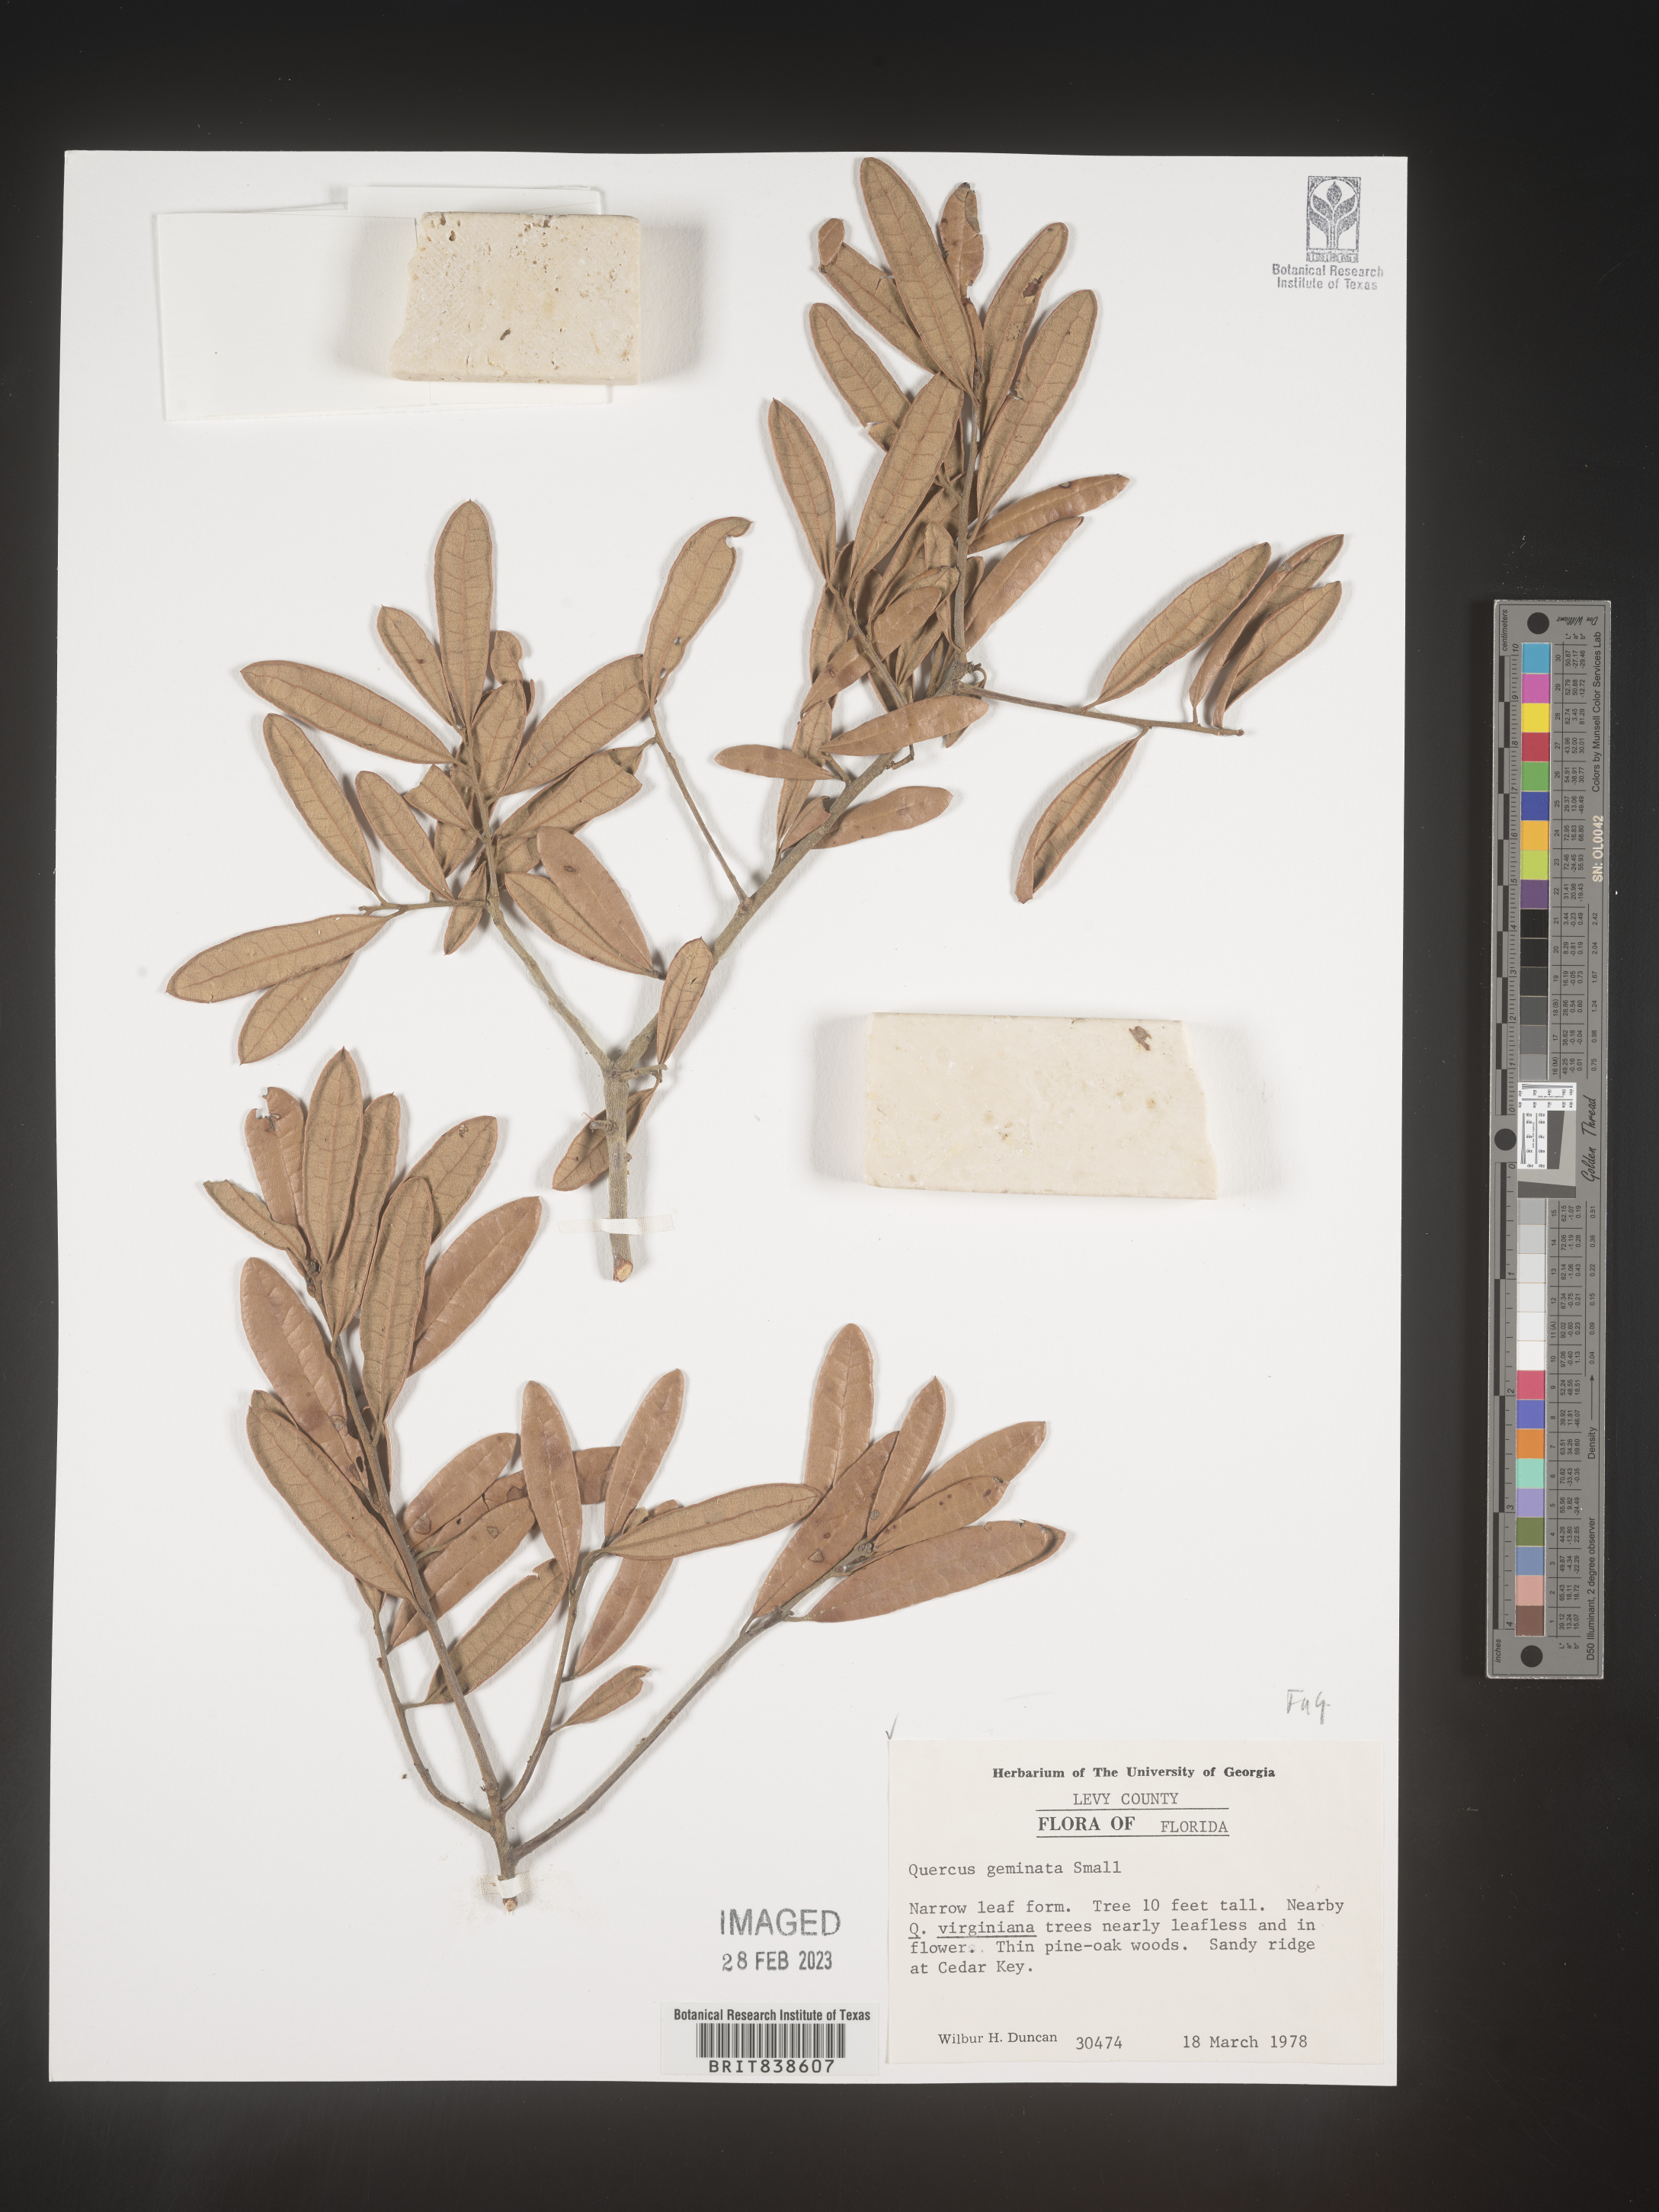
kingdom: Plantae
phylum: Tracheophyta
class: Magnoliopsida
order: Fagales
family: Fagaceae
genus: Quercus
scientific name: Quercus geminata
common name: Sand live oak
